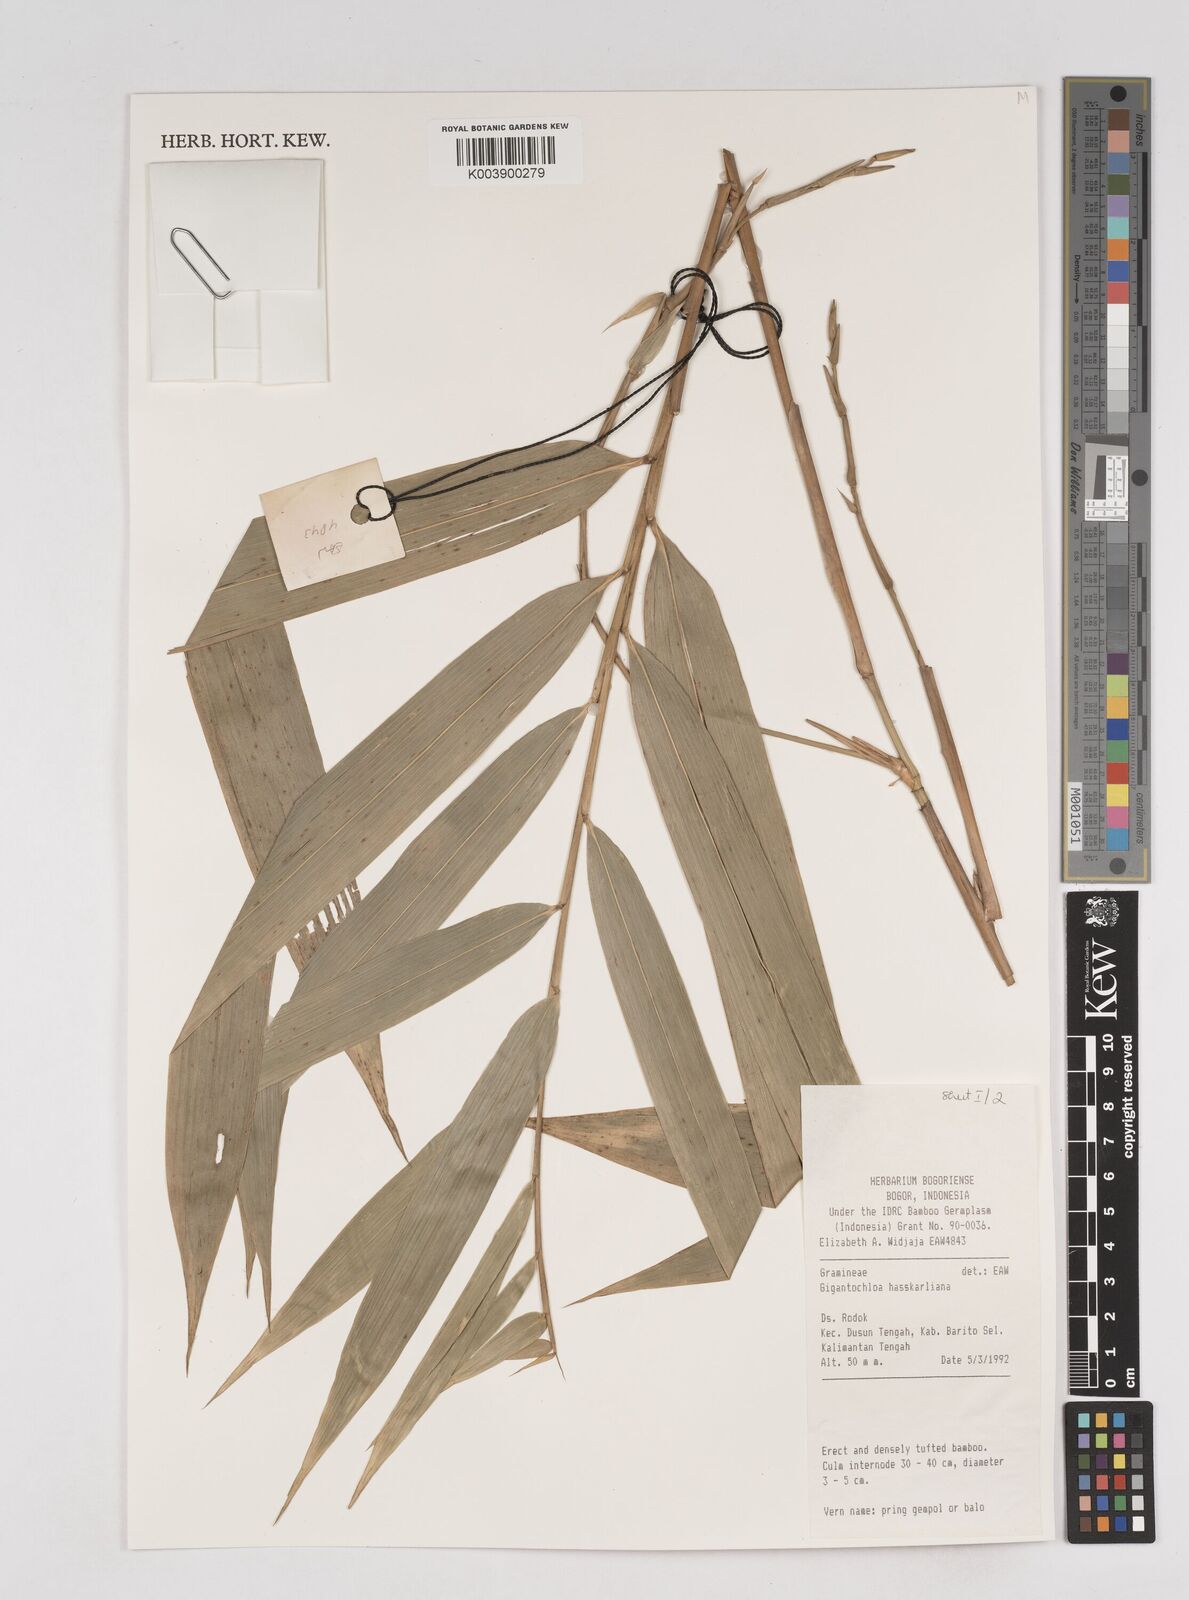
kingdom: Plantae
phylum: Tracheophyta
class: Liliopsida
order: Poales
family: Poaceae
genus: Gigantochloa
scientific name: Gigantochloa hasskarliana
